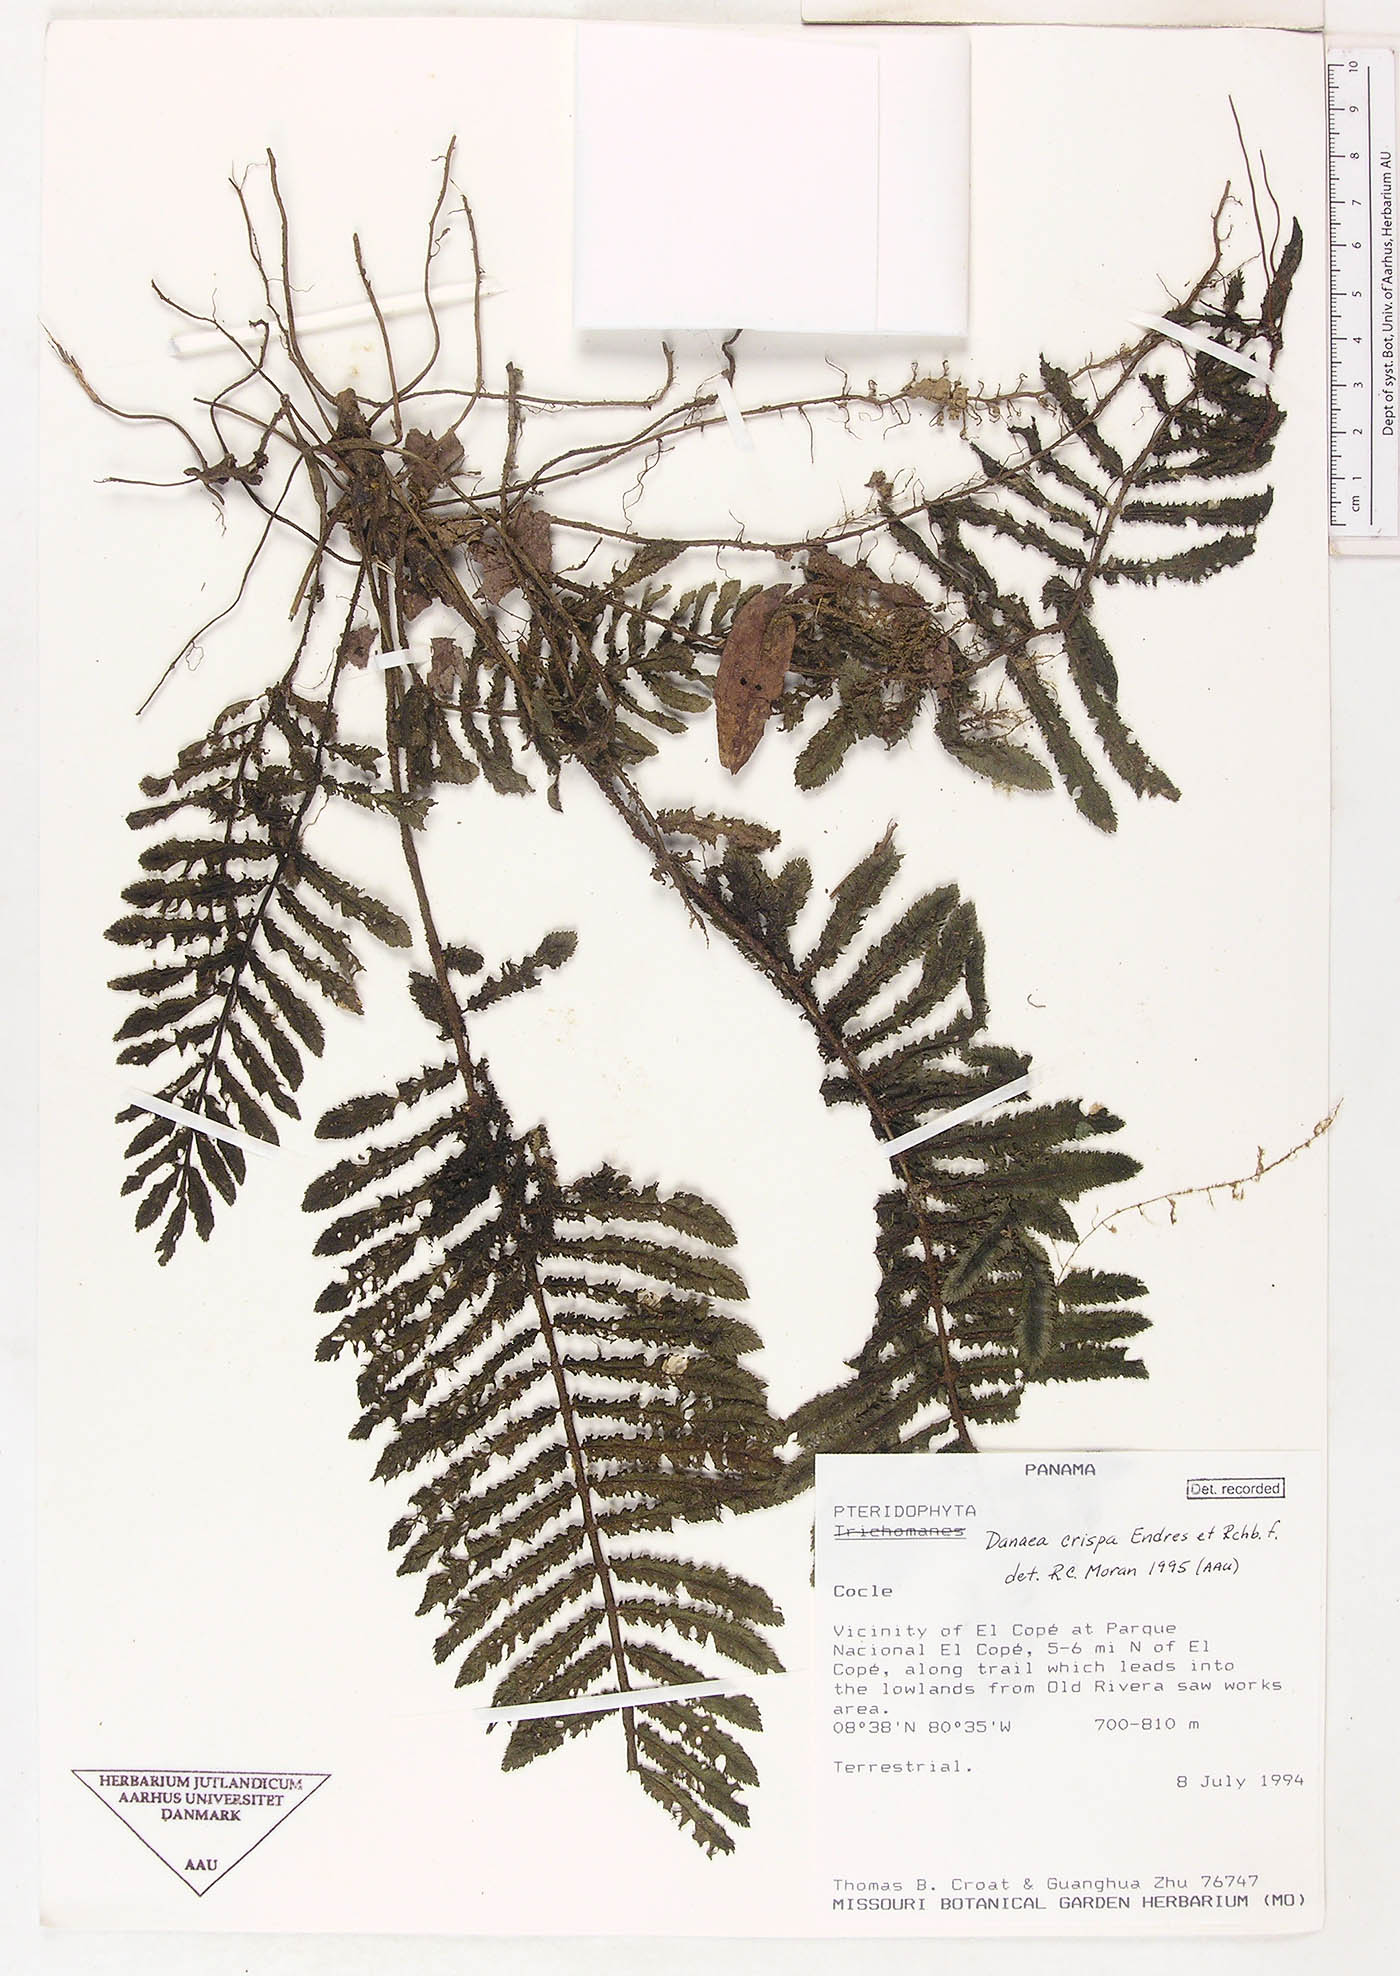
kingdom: Plantae
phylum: Tracheophyta
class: Polypodiopsida
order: Marattiales
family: Marattiaceae
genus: Danaea
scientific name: Danaea crispa
